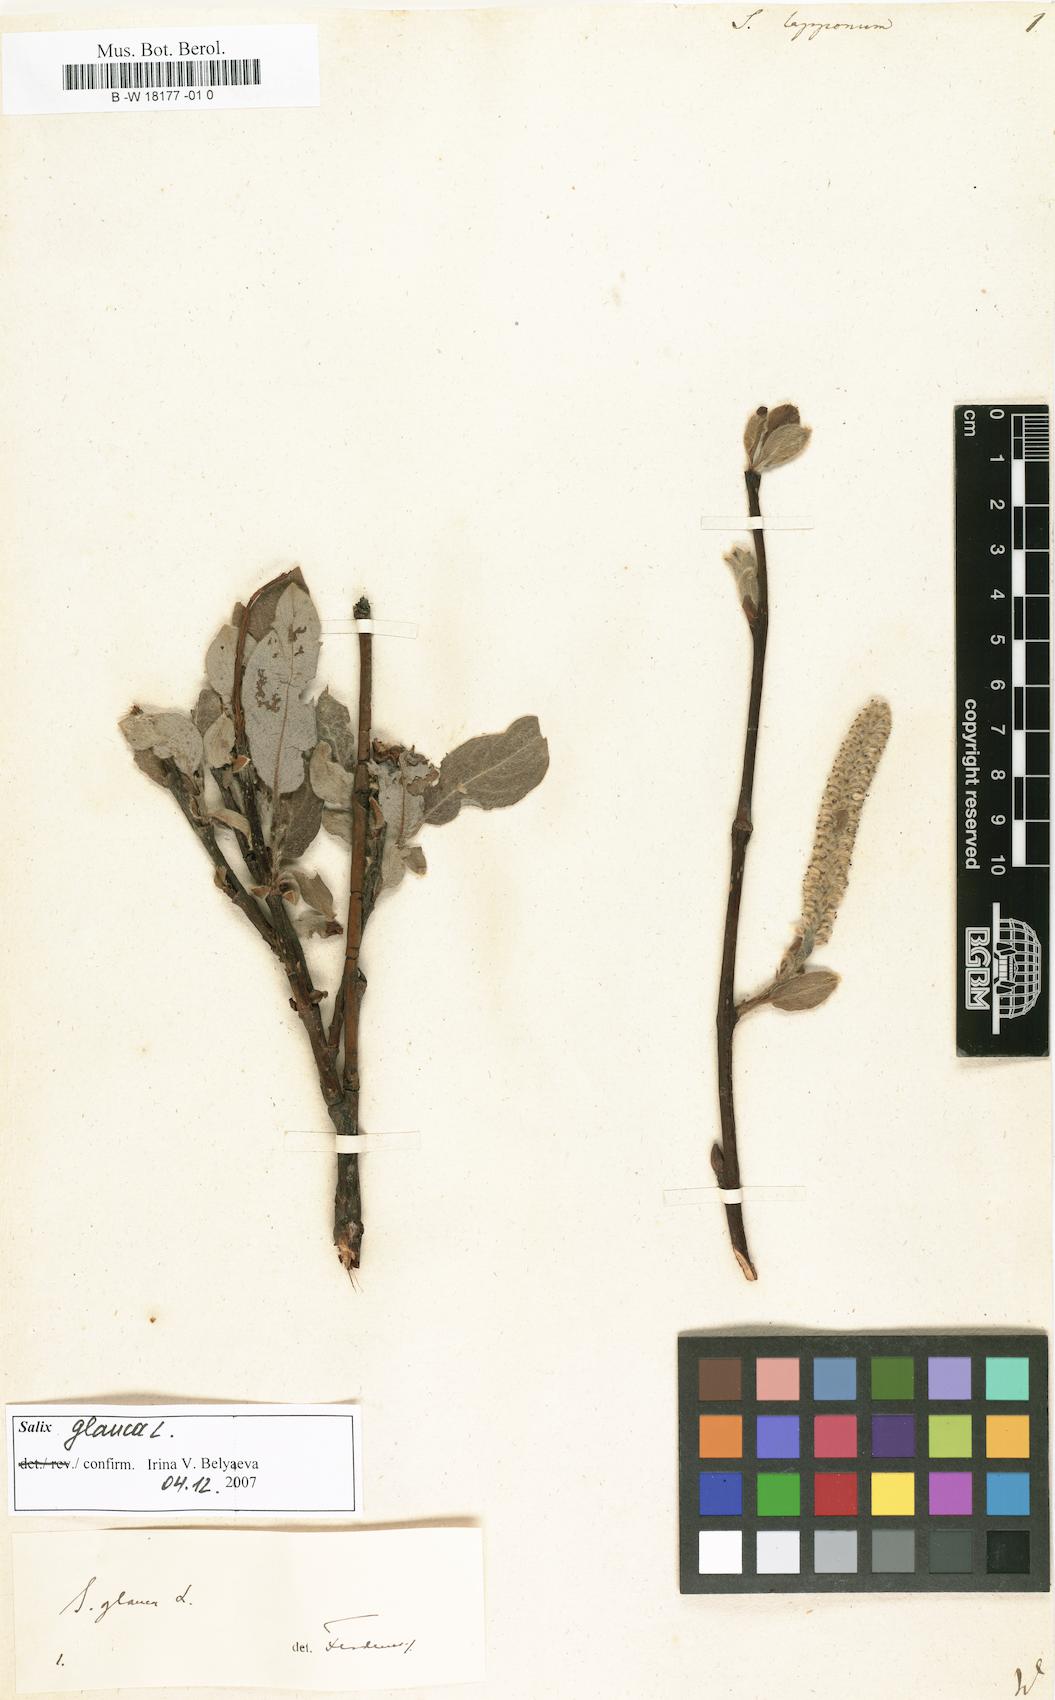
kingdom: Plantae
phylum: Tracheophyta
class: Magnoliopsida
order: Malpighiales
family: Salicaceae
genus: Salix
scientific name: Salix lapponum
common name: Downy willow
